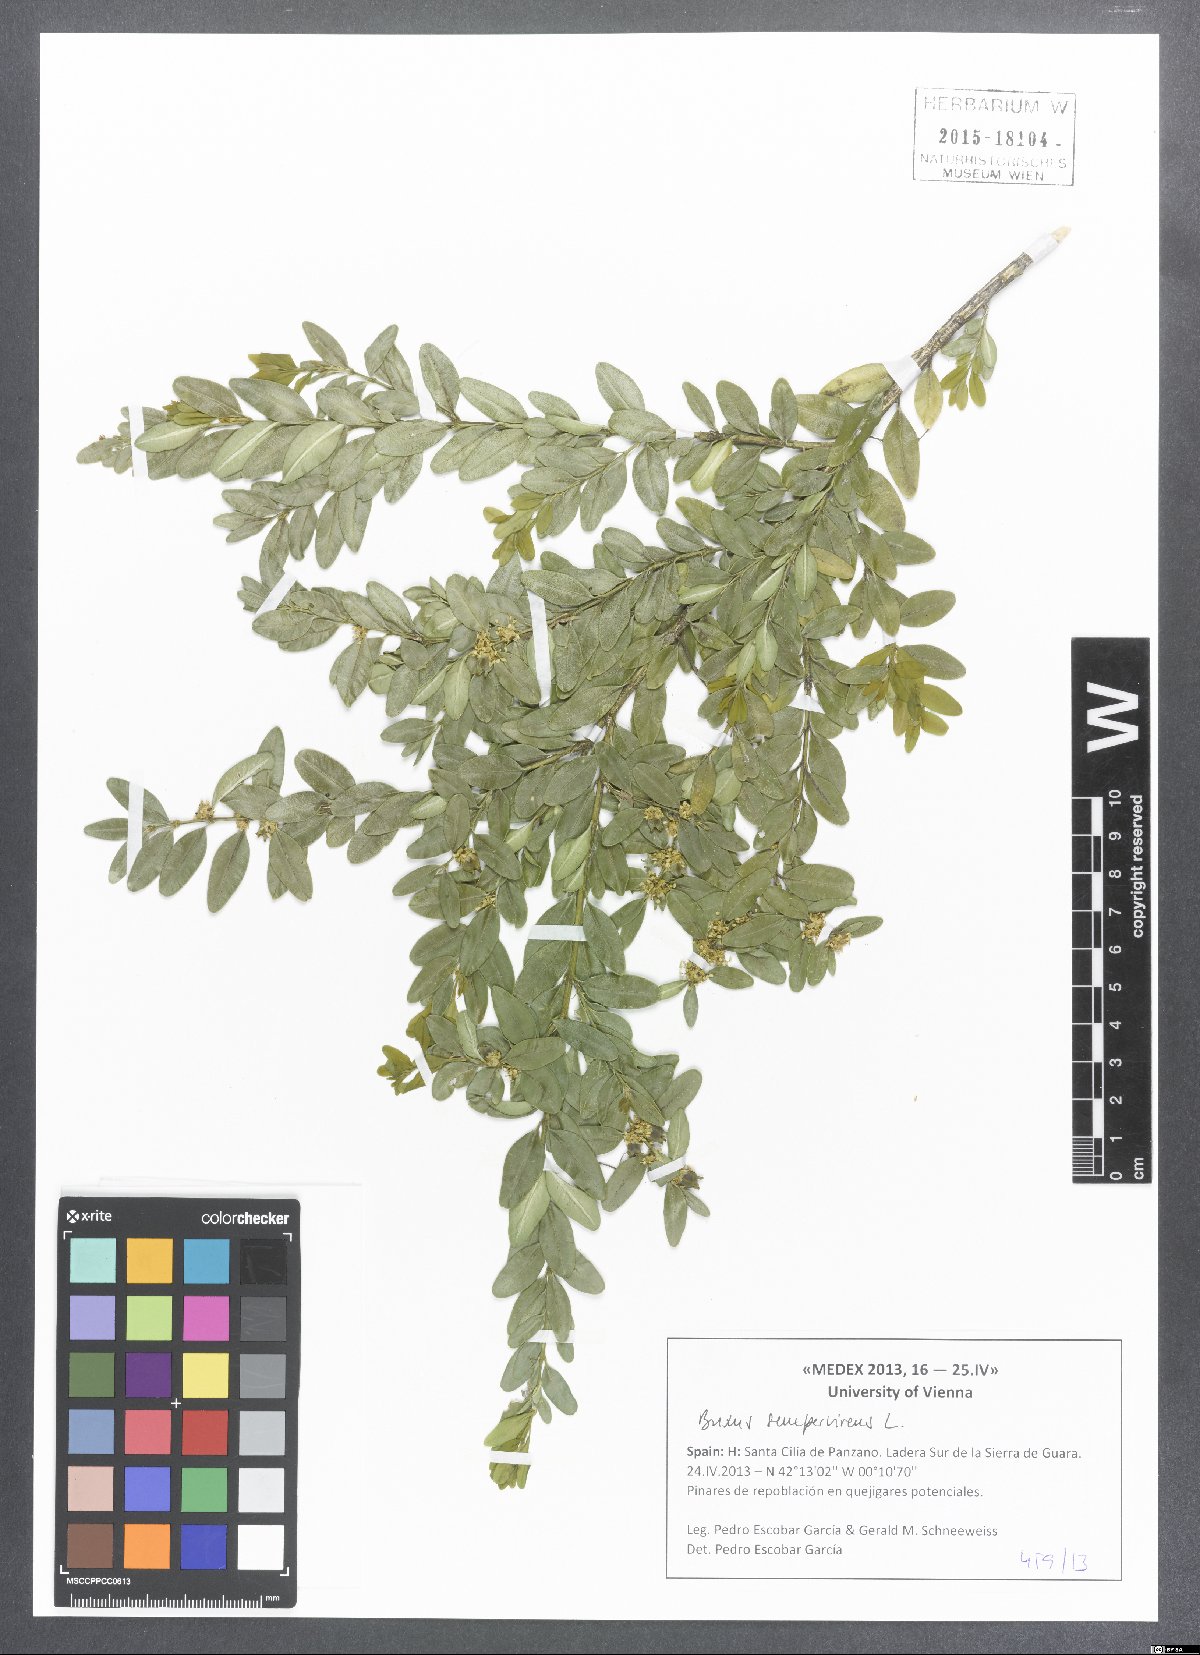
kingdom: Plantae
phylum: Tracheophyta
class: Magnoliopsida
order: Buxales
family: Buxaceae
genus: Buxus
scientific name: Buxus sempervirens
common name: Box
